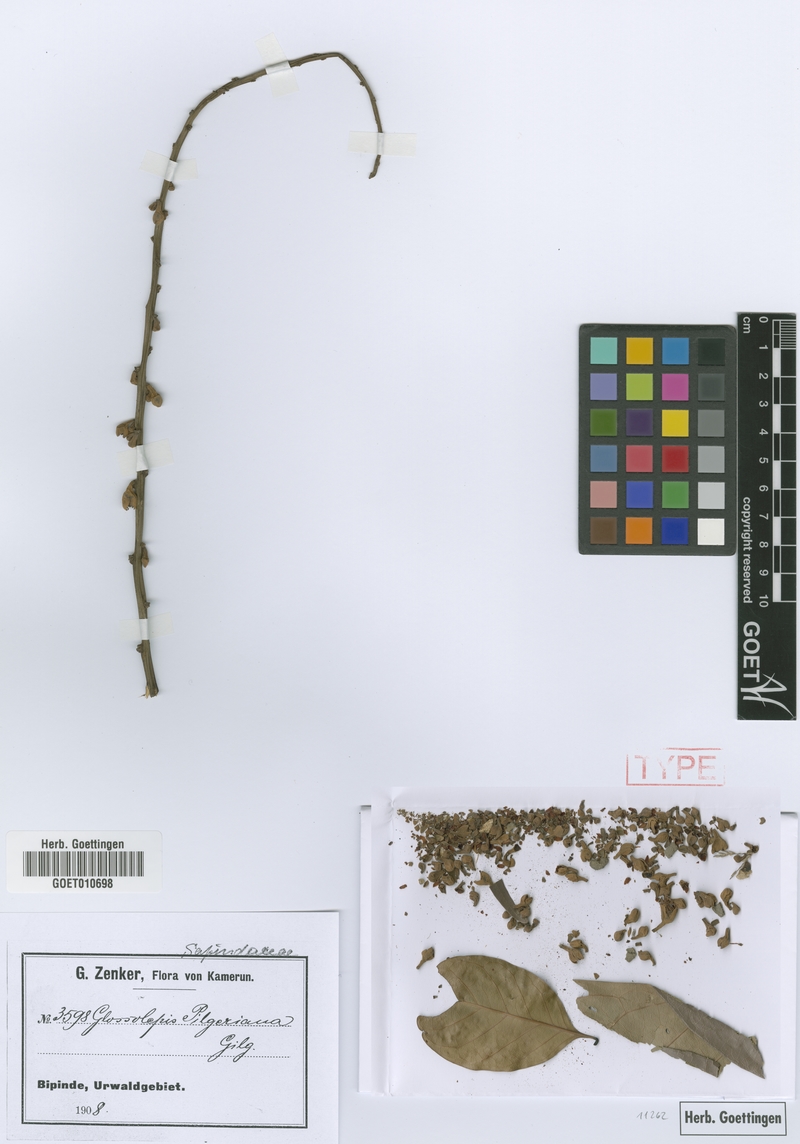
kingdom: Plantae
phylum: Tracheophyta
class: Magnoliopsida
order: Sapindales
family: Sapindaceae
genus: Chytranthus
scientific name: Chytranthus talbotii
